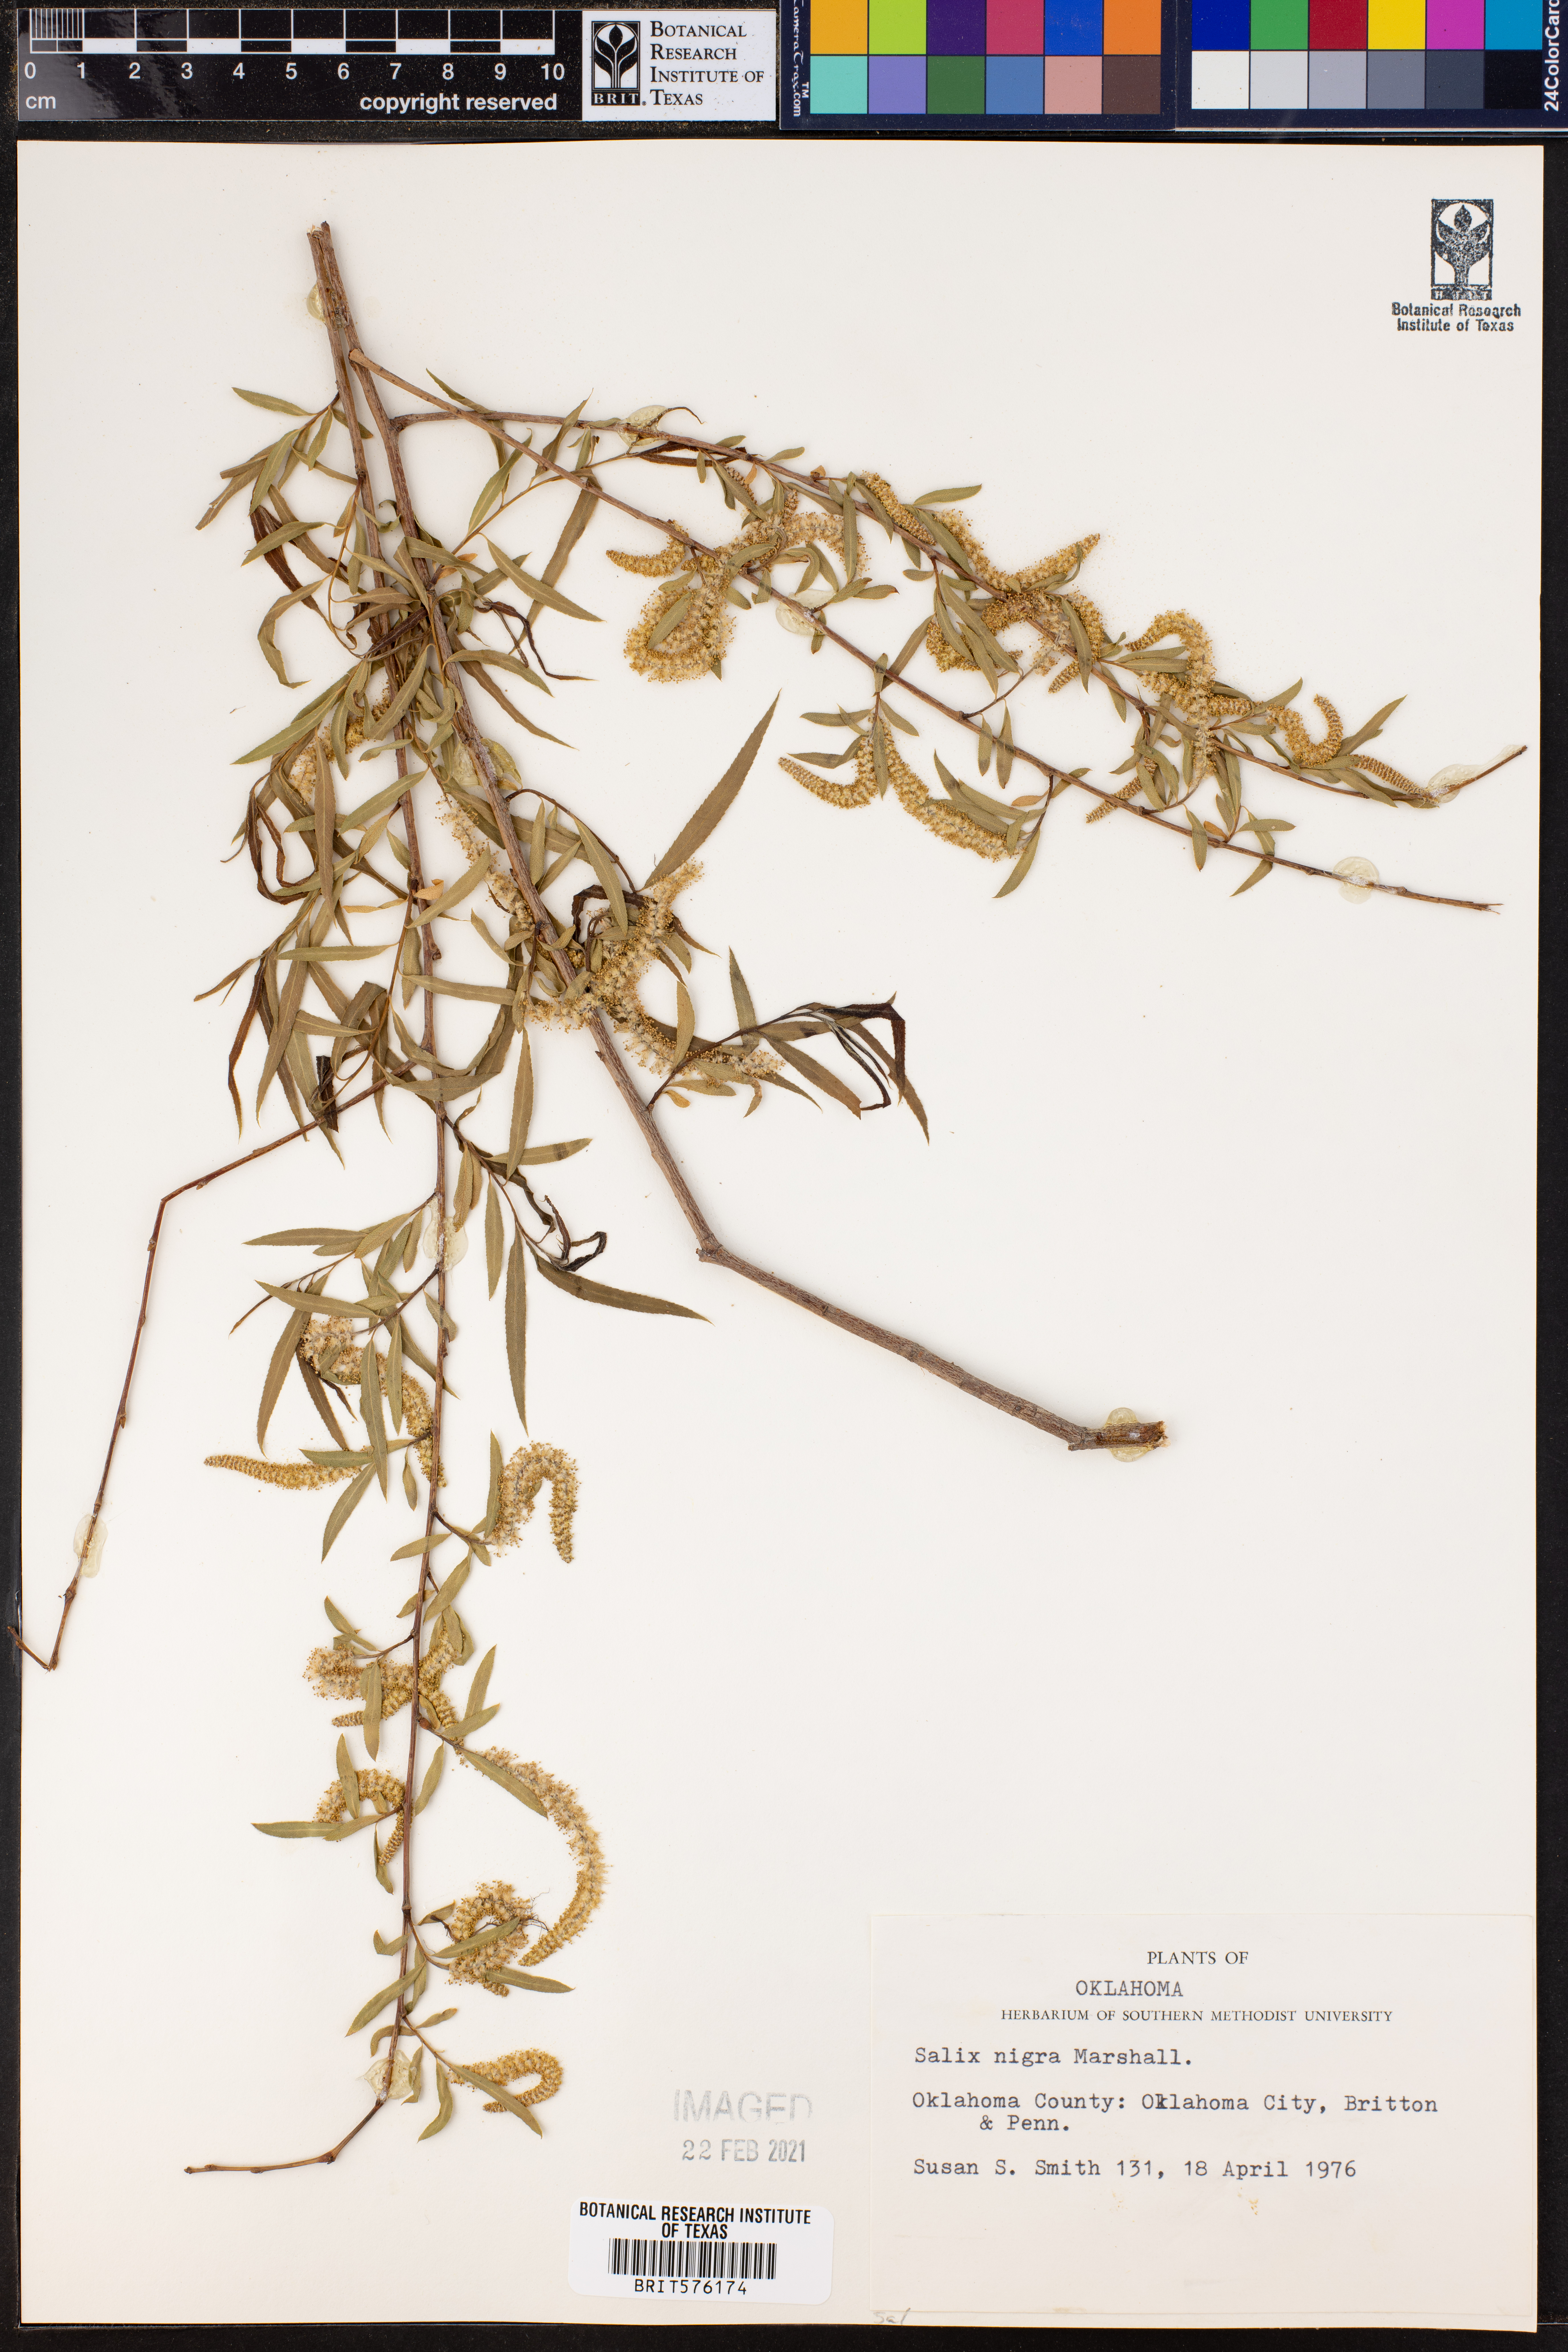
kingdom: Plantae
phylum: Tracheophyta
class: Magnoliopsida
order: Malpighiales
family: Salicaceae
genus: Salix
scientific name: Salix nigra
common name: Black willow
